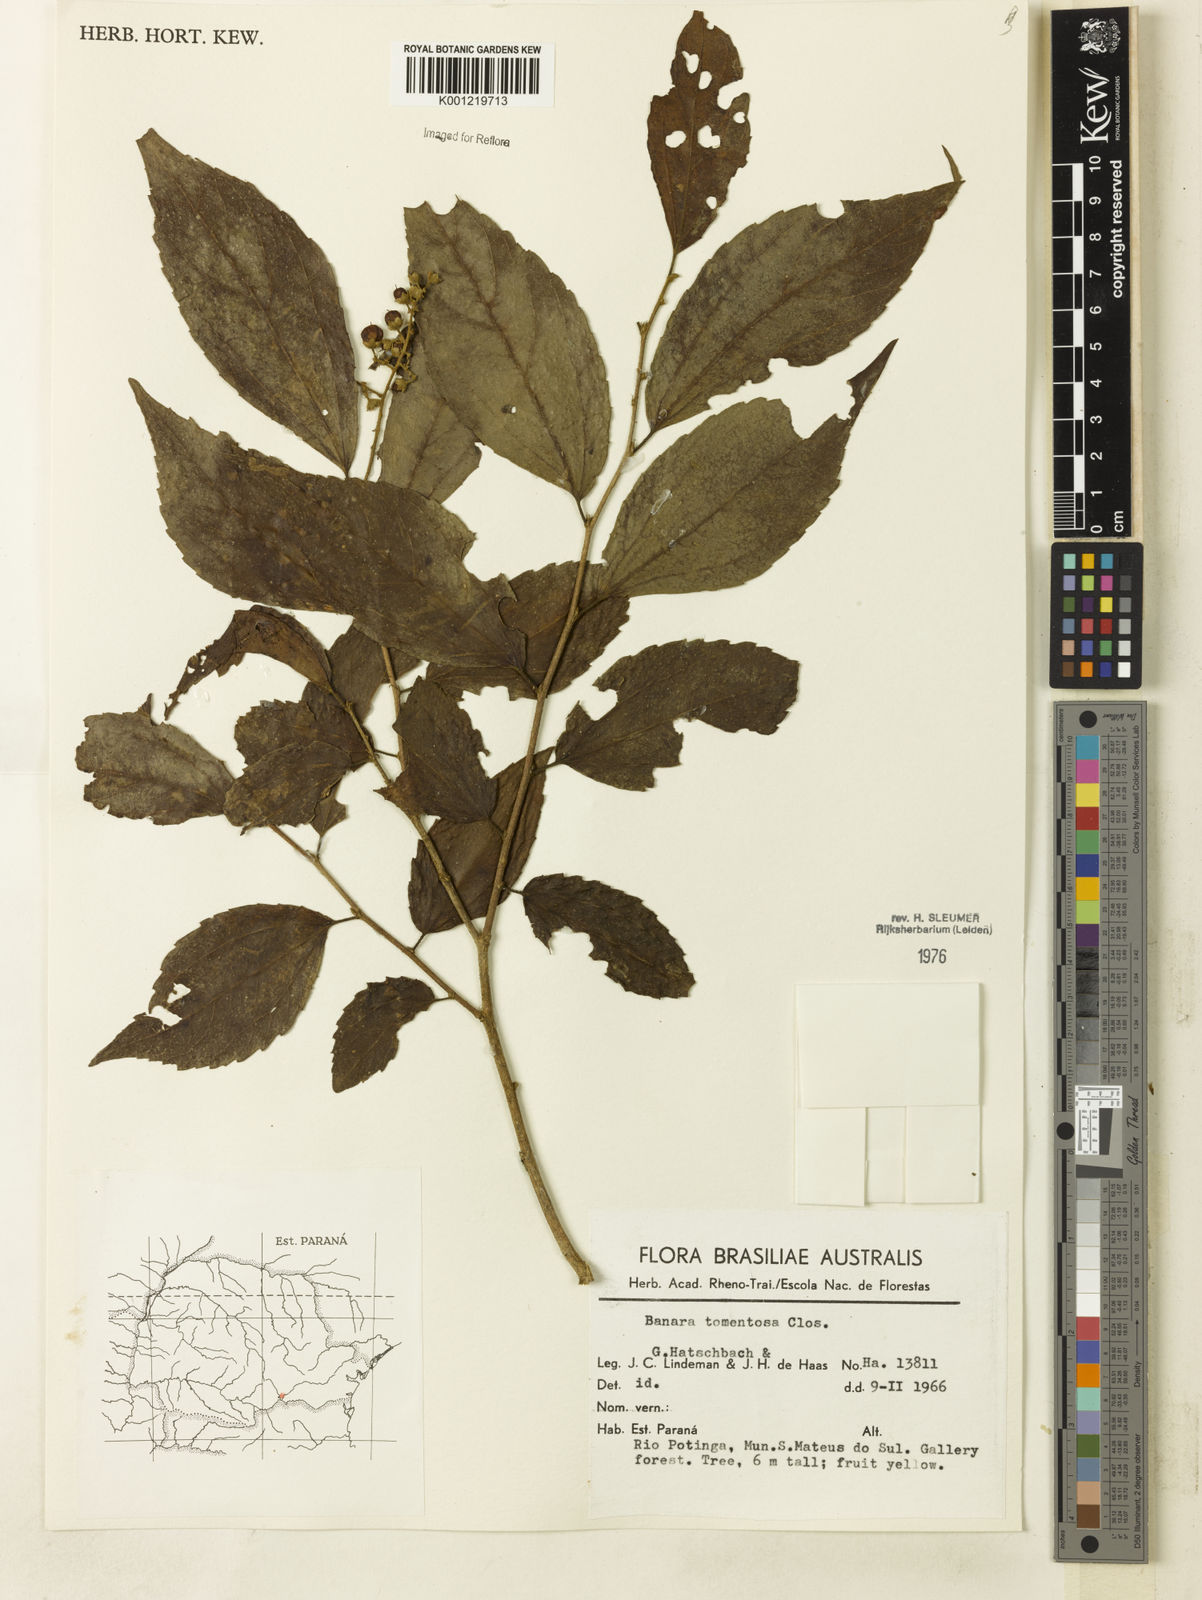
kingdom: Plantae
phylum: Tracheophyta
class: Magnoliopsida
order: Malpighiales
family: Salicaceae
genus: Banara
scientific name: Banara tomentosa
